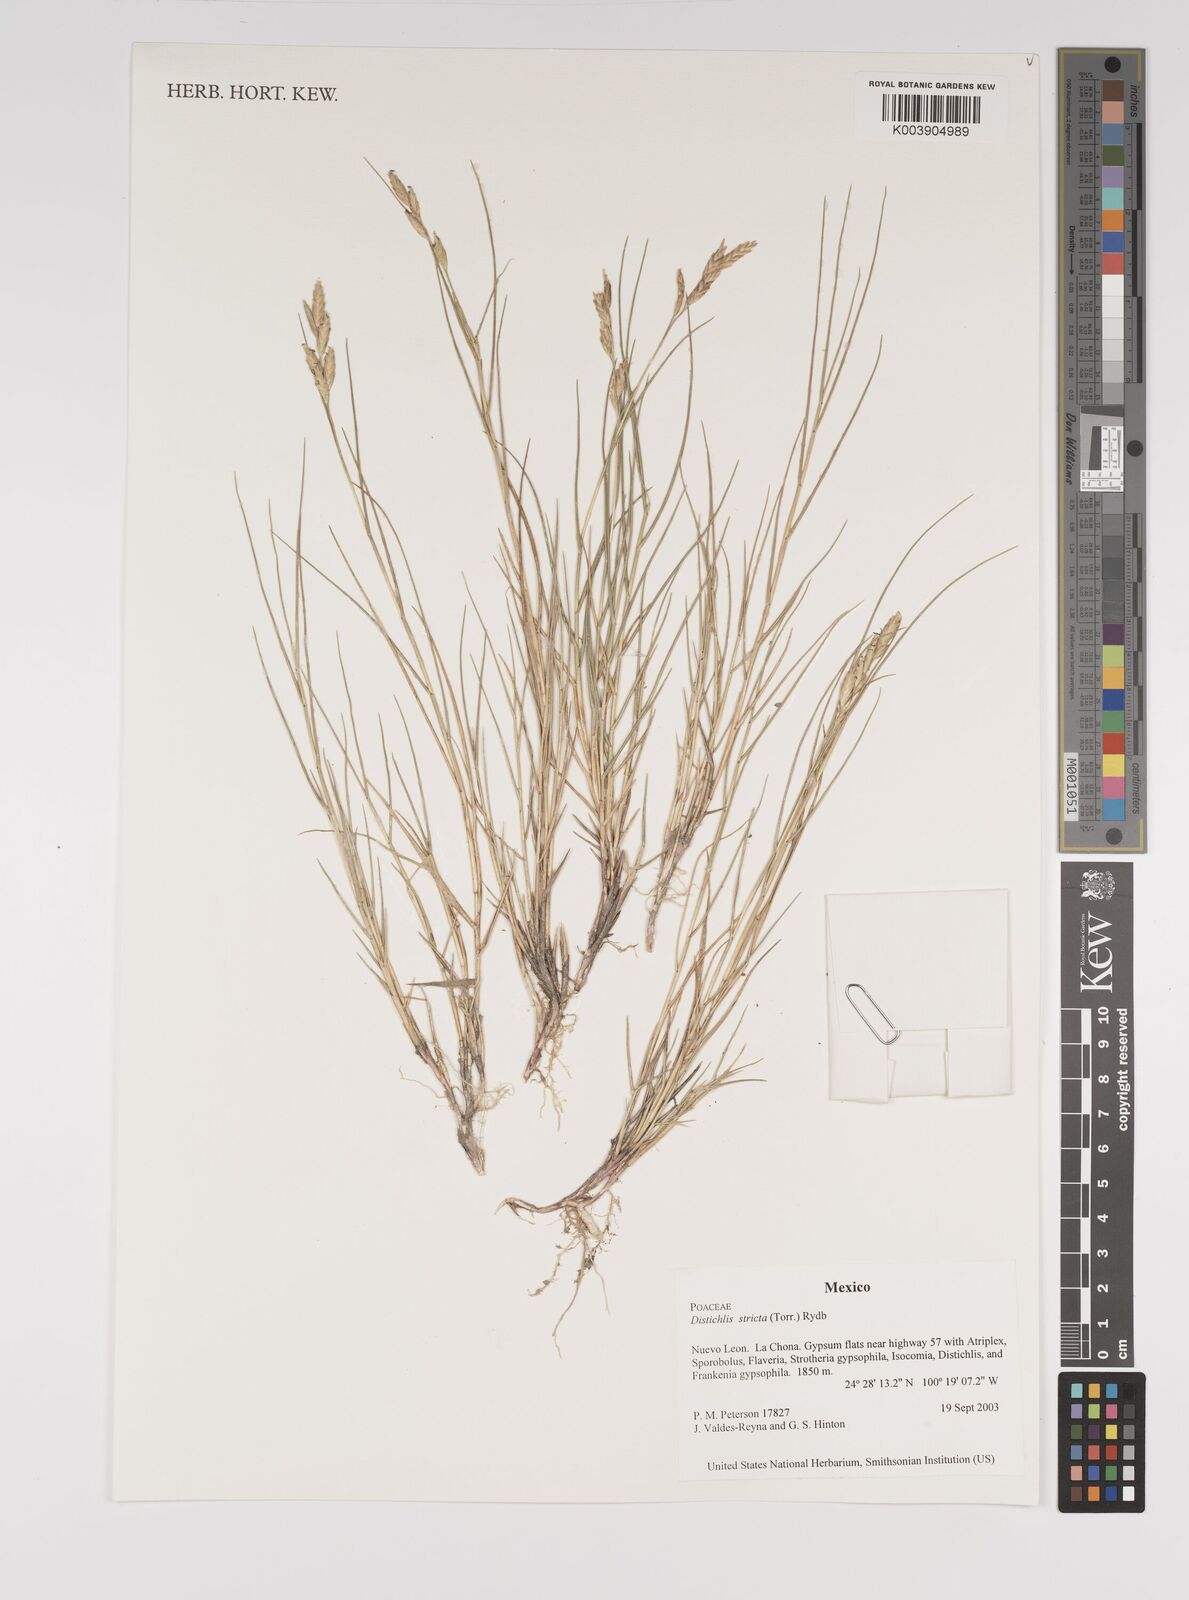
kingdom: Plantae
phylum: Tracheophyta
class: Liliopsida
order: Poales
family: Poaceae
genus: Distichlis
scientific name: Distichlis spicata
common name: Saltgrass
